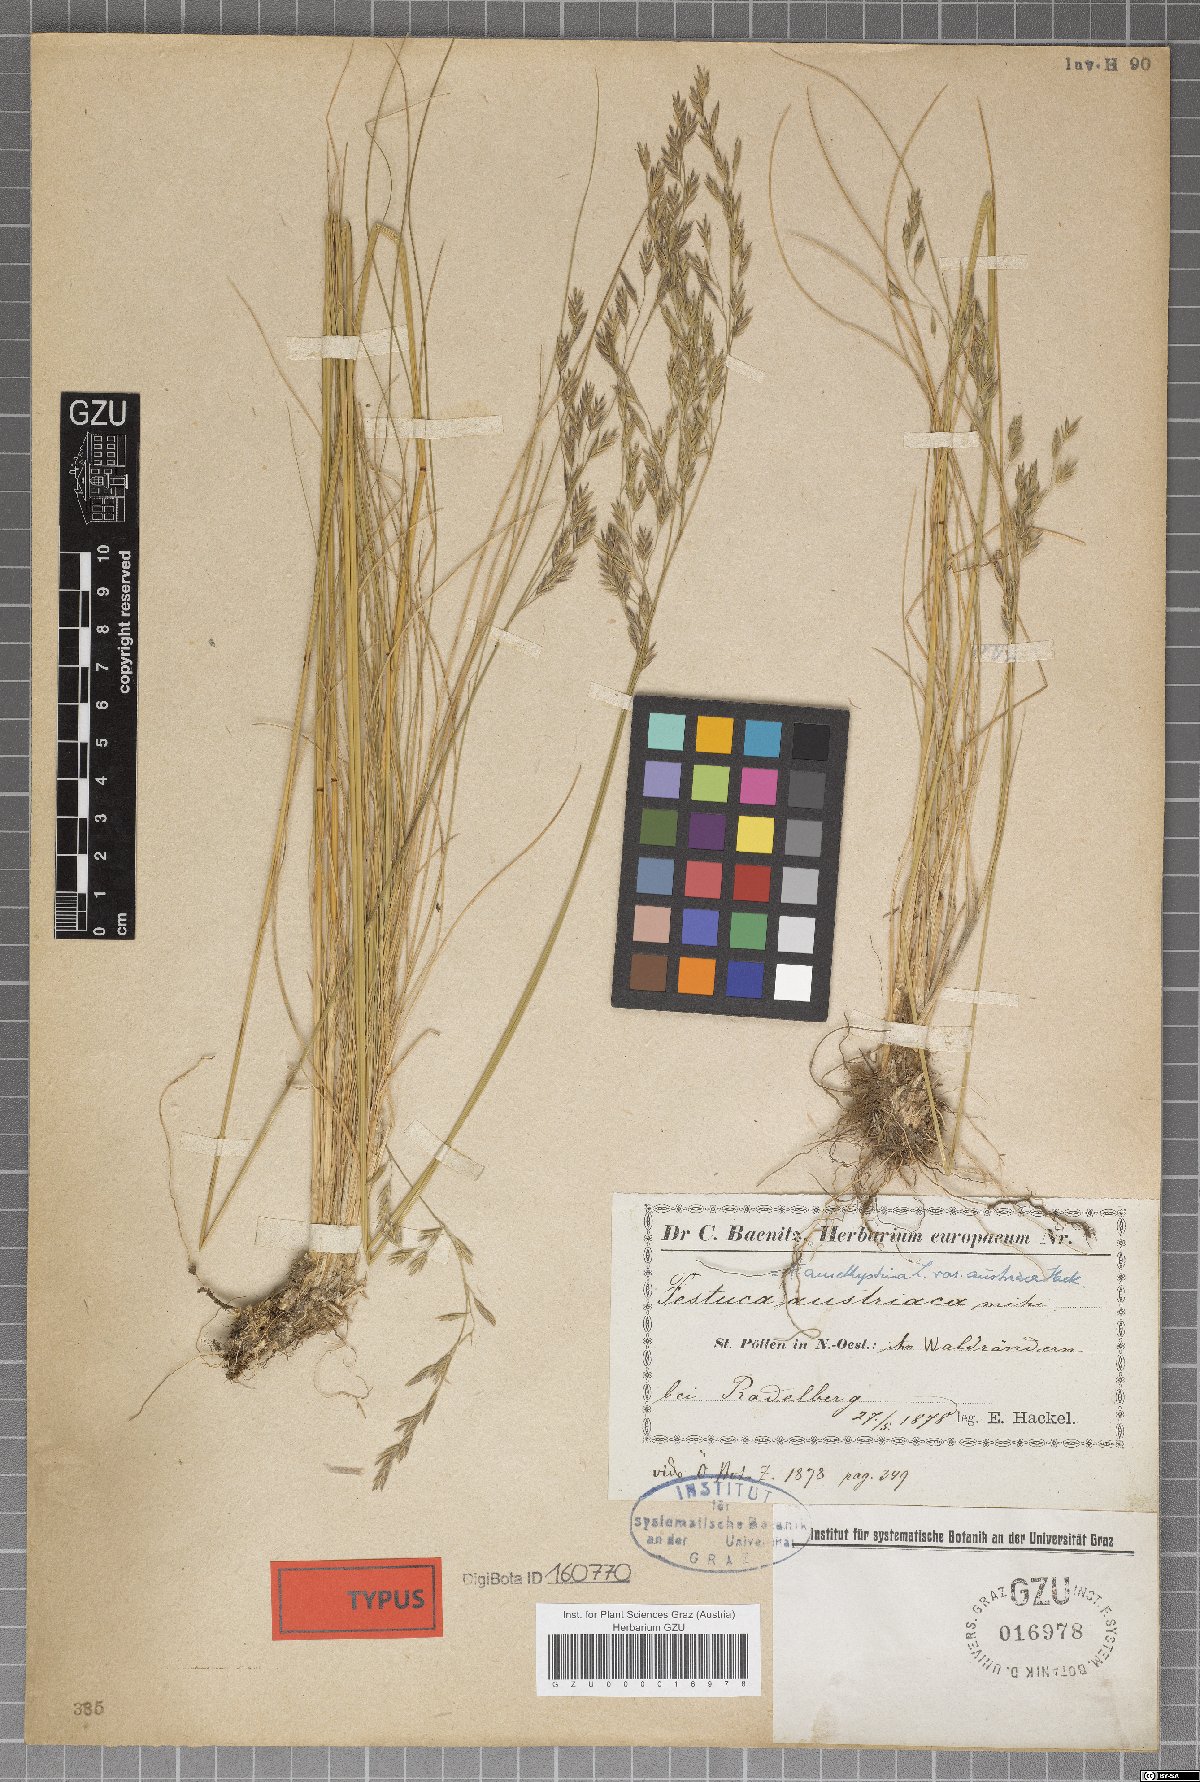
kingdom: Plantae
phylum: Tracheophyta
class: Liliopsida
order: Poales
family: Poaceae
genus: Festuca
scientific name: Festuca amethystina
